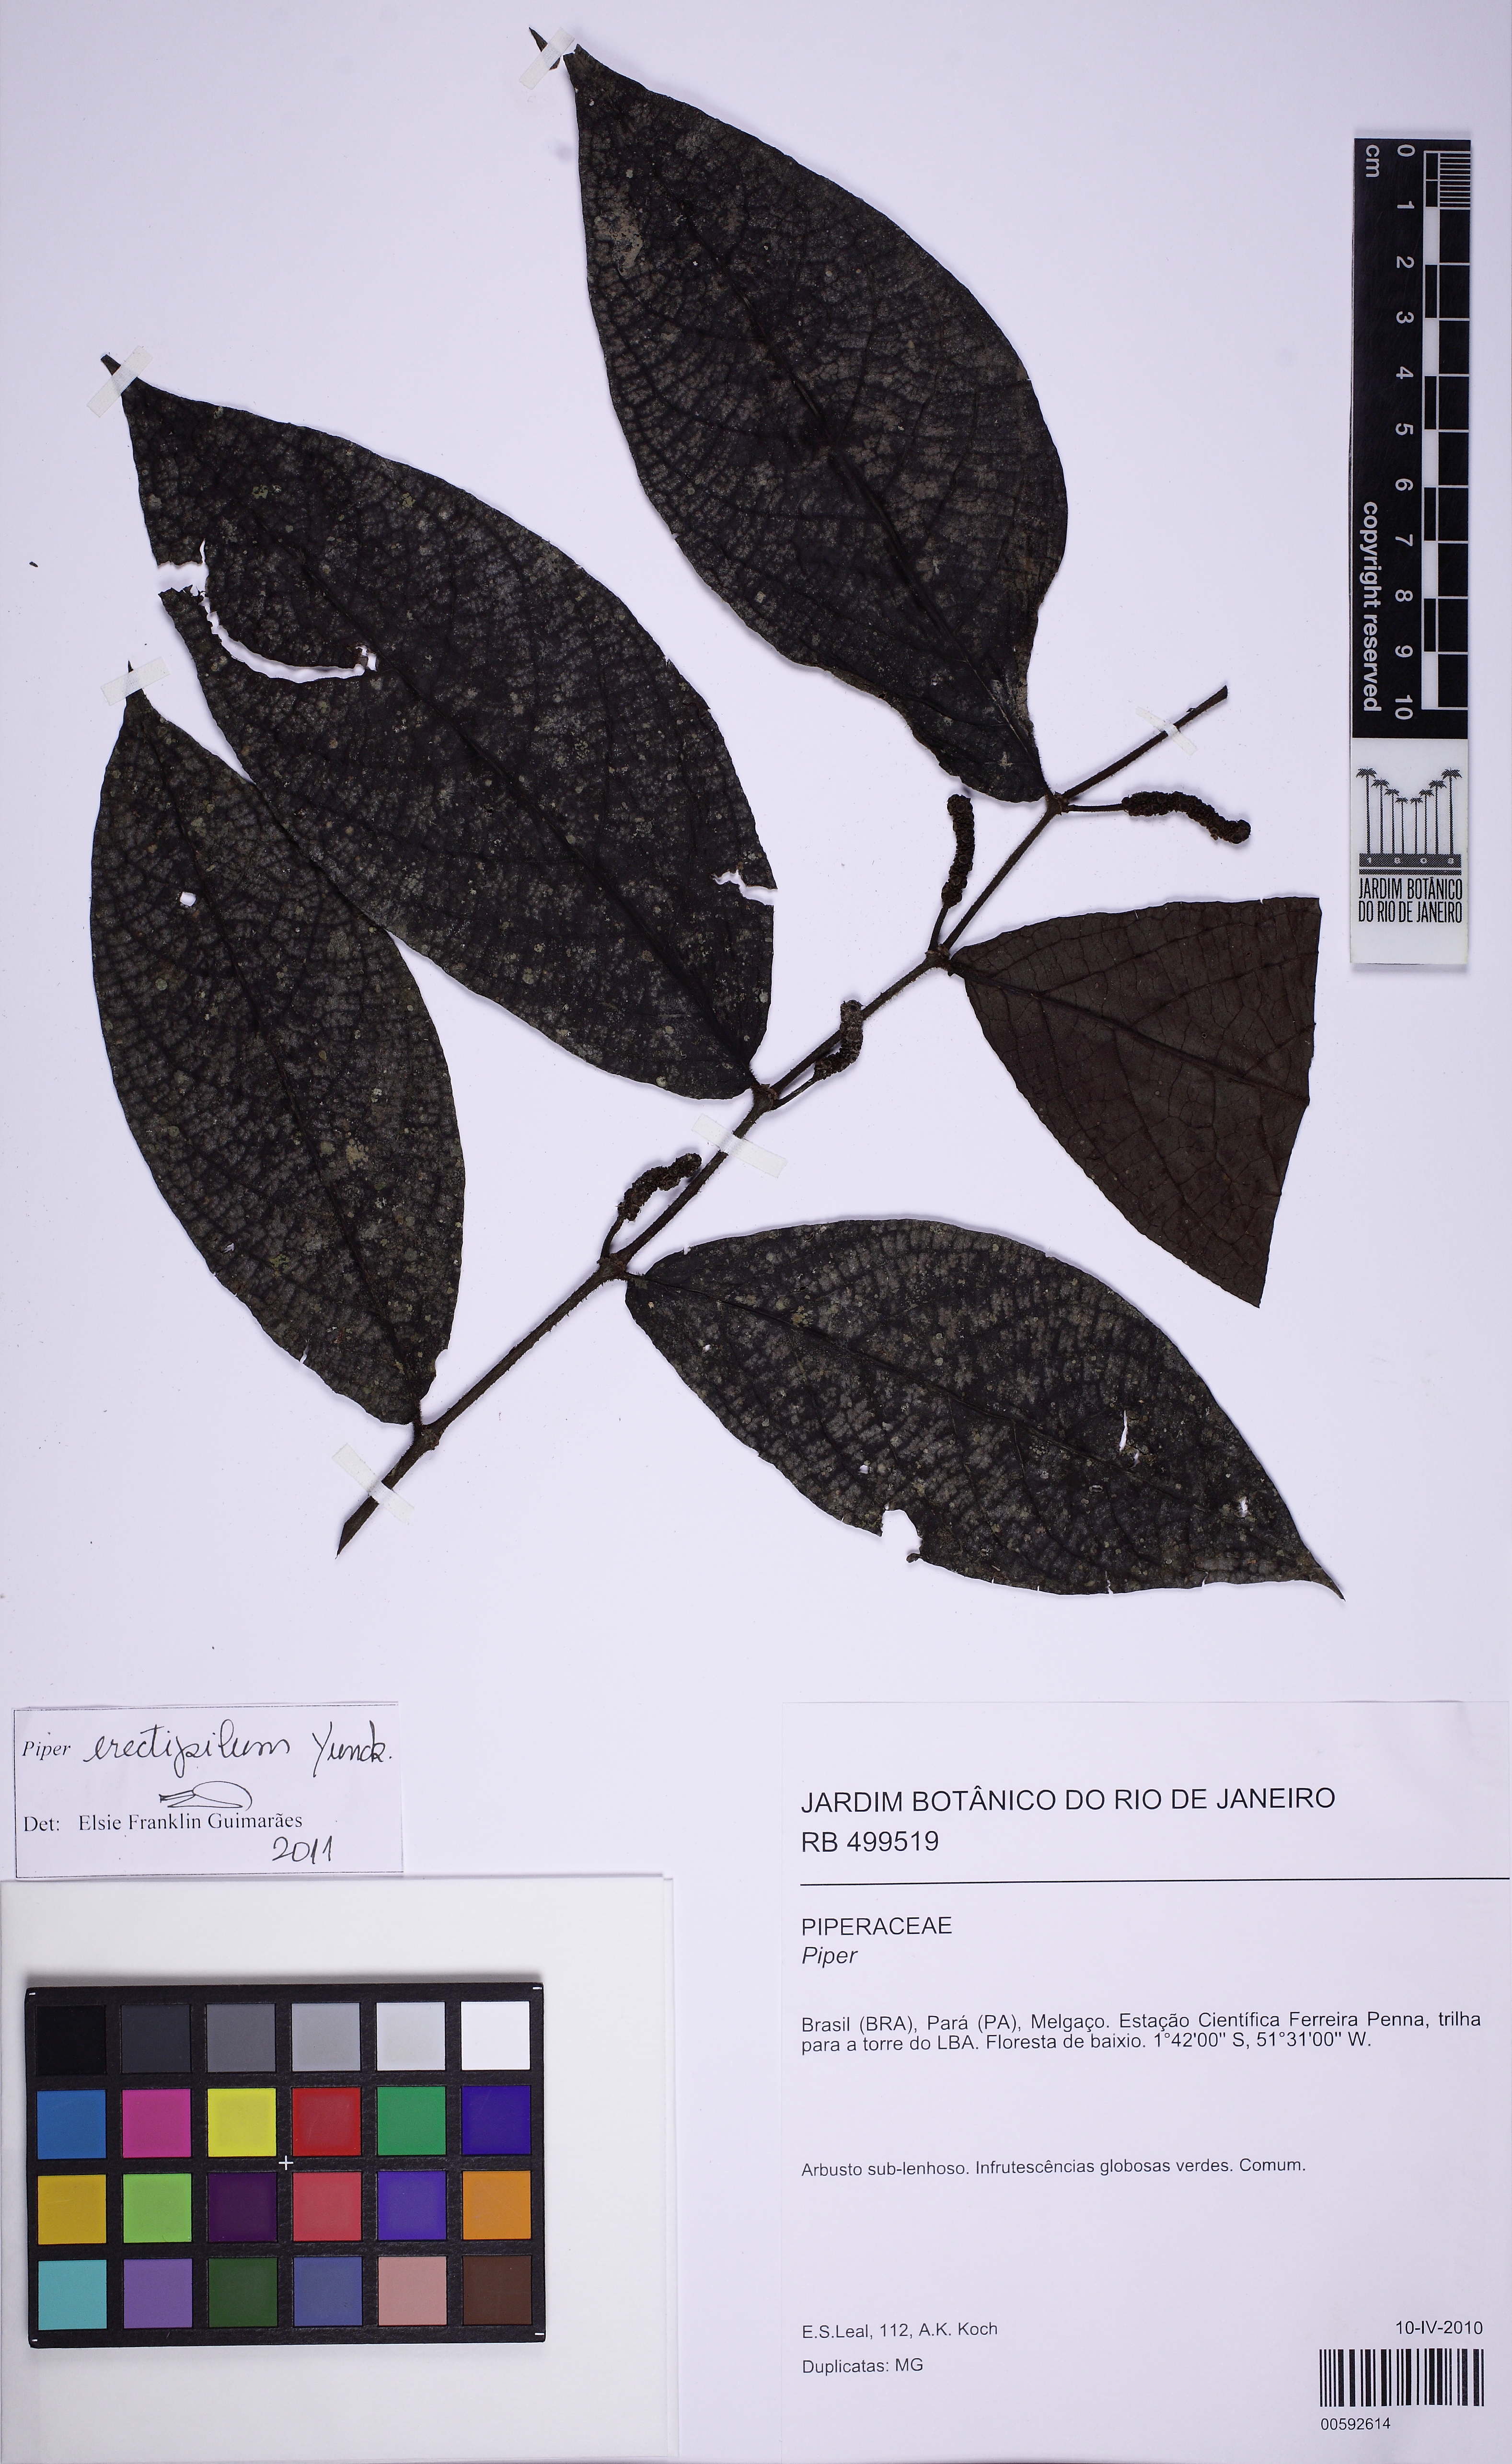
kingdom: Plantae
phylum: Tracheophyta
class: Magnoliopsida
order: Piperales
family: Piperaceae
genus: Piper
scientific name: Piper erectipilum
